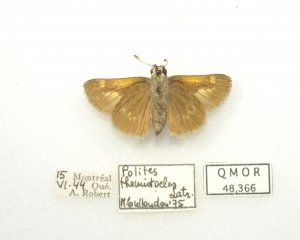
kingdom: Animalia
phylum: Arthropoda
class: Insecta
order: Lepidoptera
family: Hesperiidae
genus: Polites
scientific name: Polites themistocles
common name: Tawny-edged Skipper
